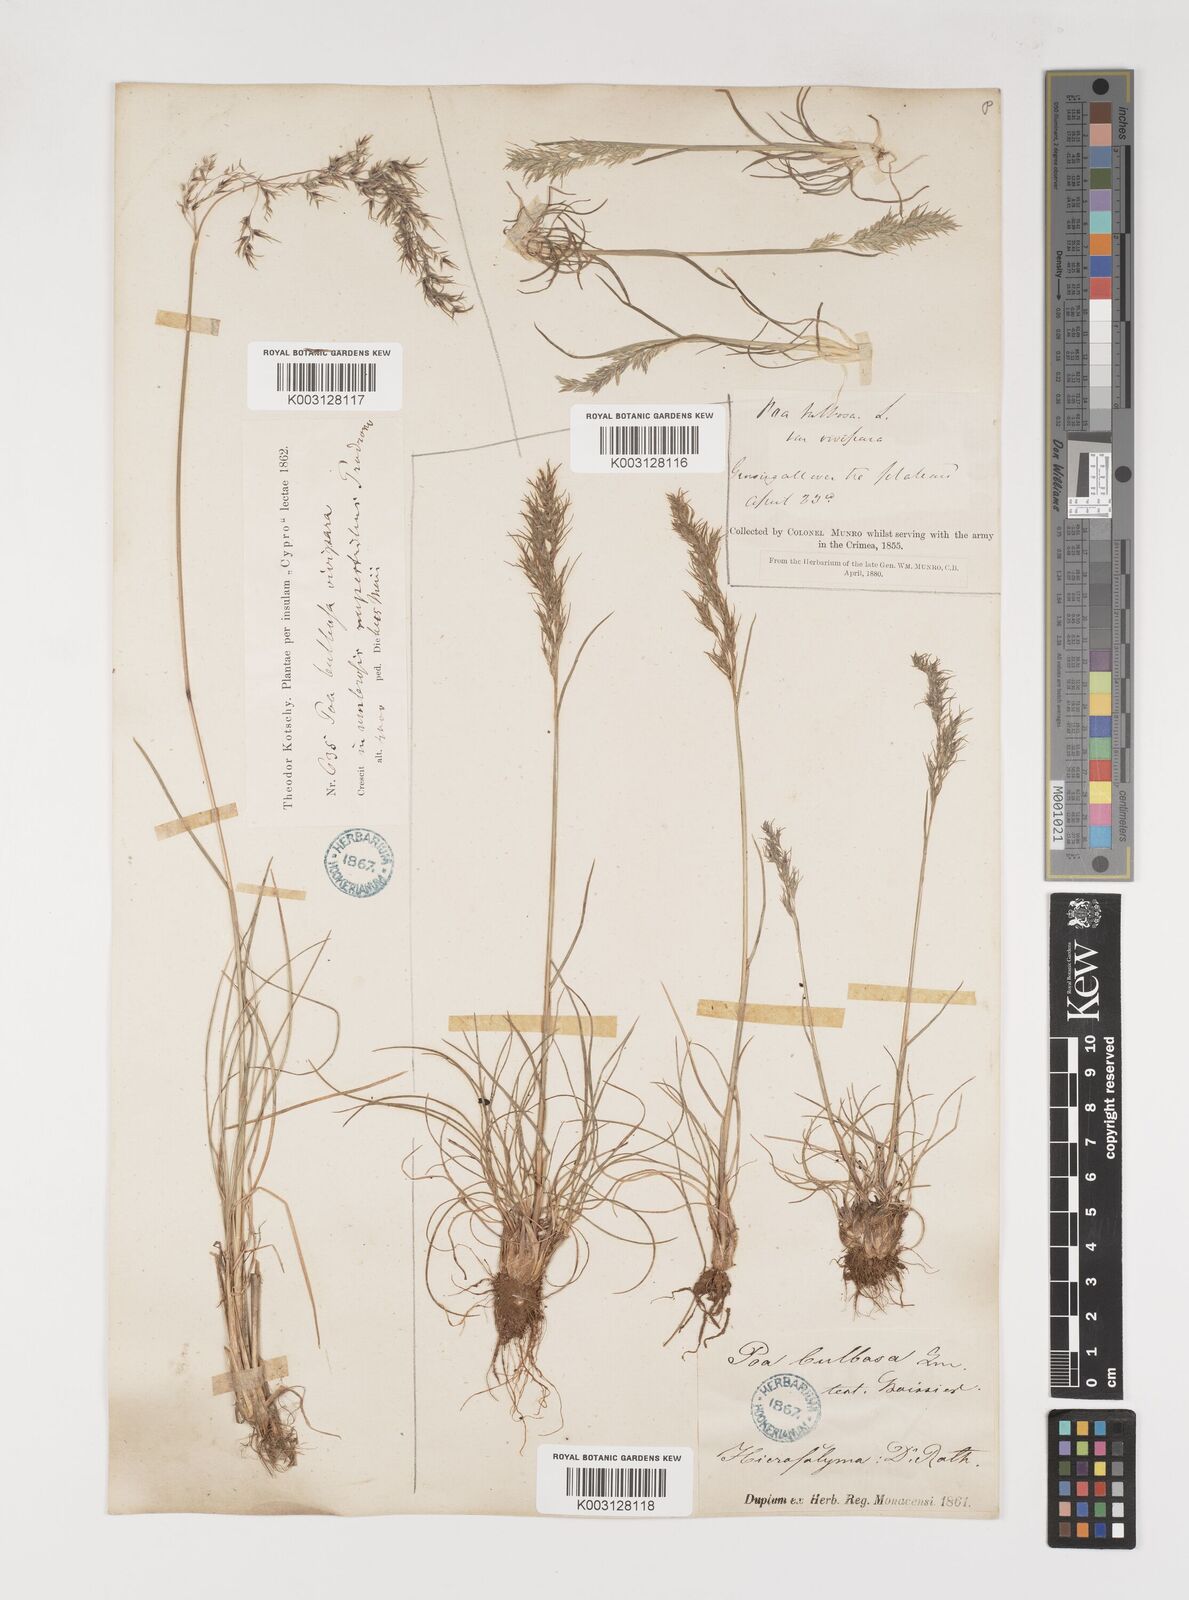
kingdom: Plantae
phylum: Tracheophyta
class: Liliopsida
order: Poales
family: Poaceae
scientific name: Poaceae
